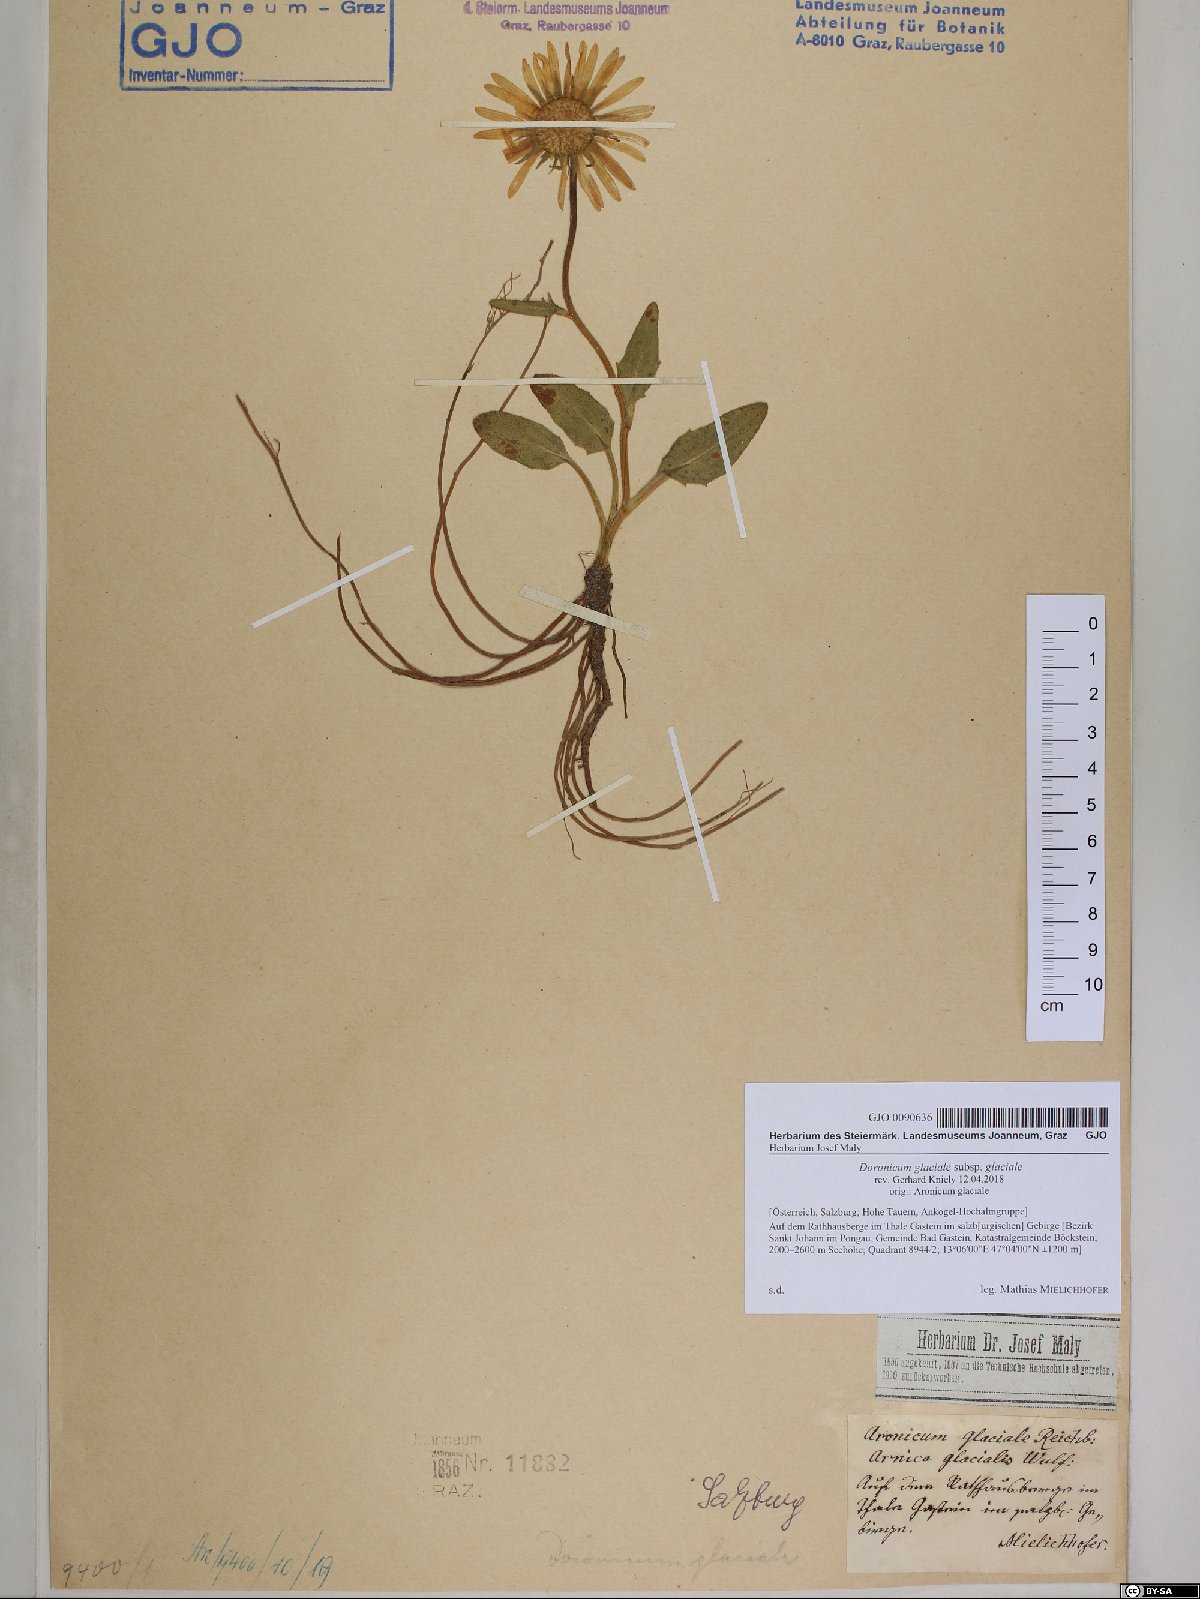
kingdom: Plantae
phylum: Tracheophyta
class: Magnoliopsida
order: Asterales
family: Asteraceae
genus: Doronicum
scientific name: Doronicum glaciale
